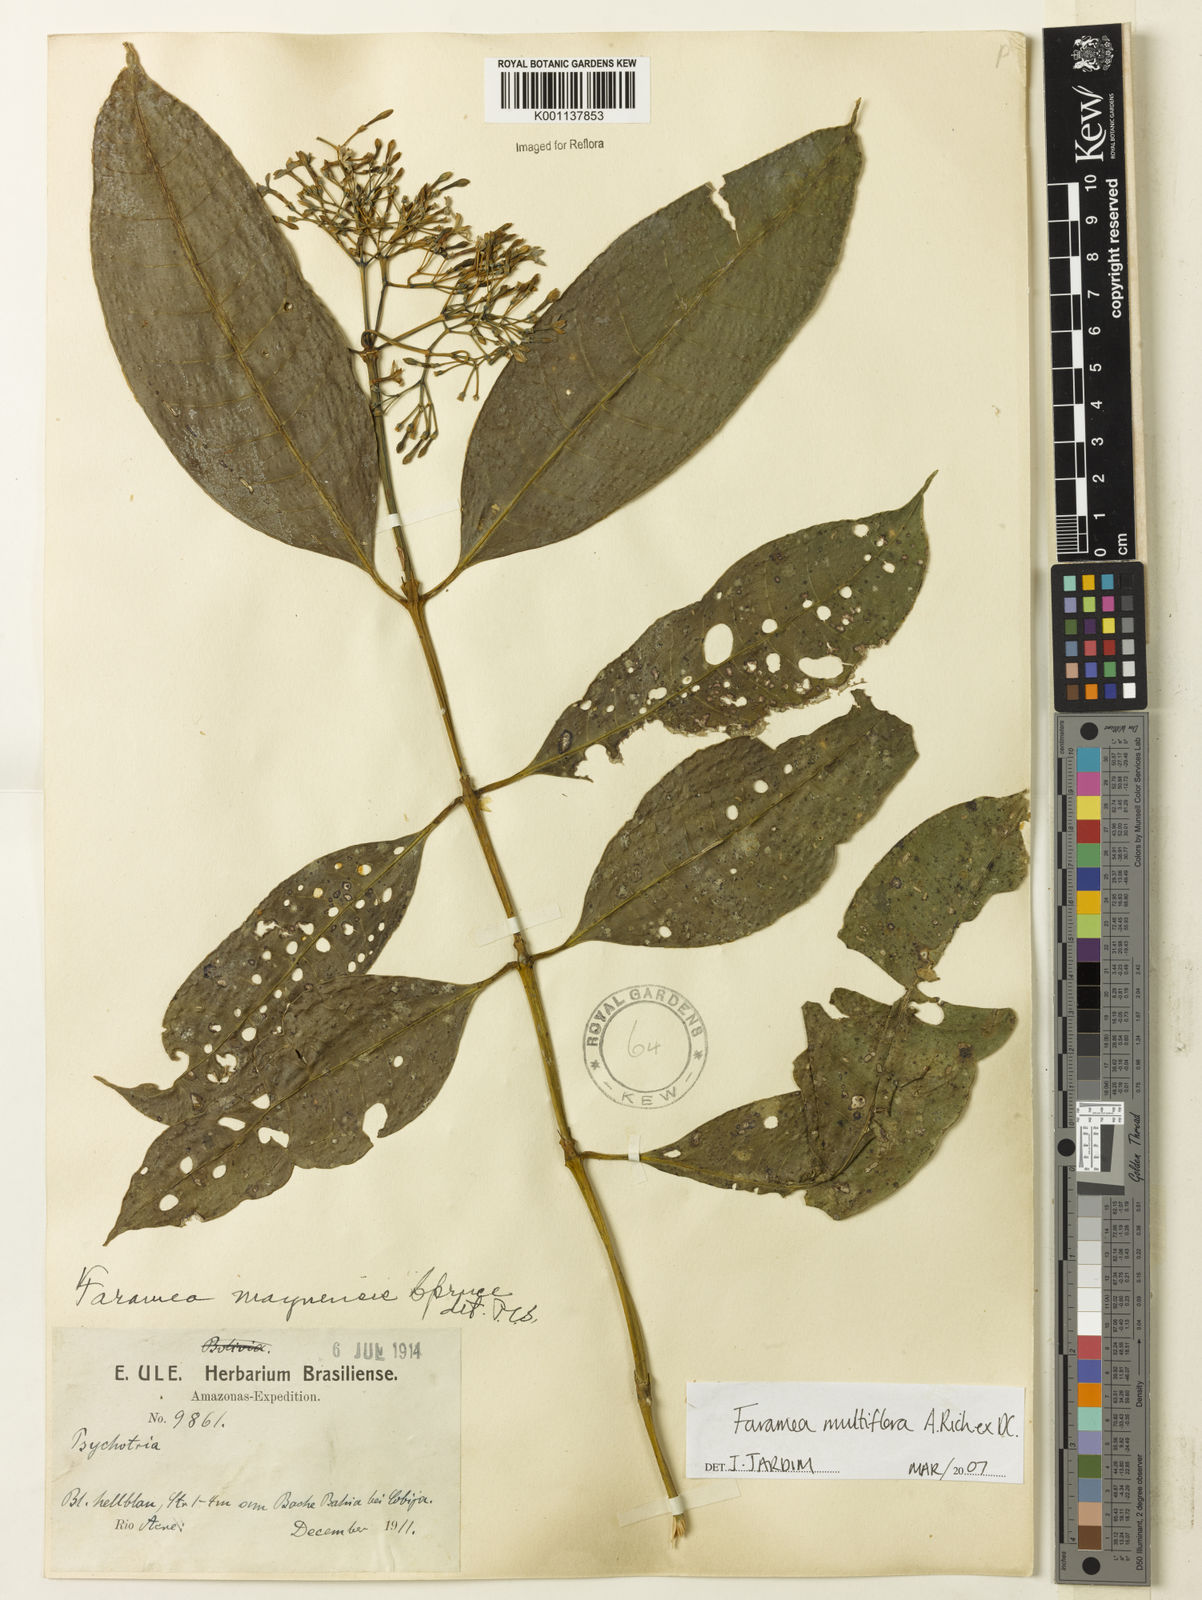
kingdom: Plantae
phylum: Tracheophyta
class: Magnoliopsida
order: Gentianales
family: Rubiaceae
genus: Faramea
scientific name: Faramea multiflora
